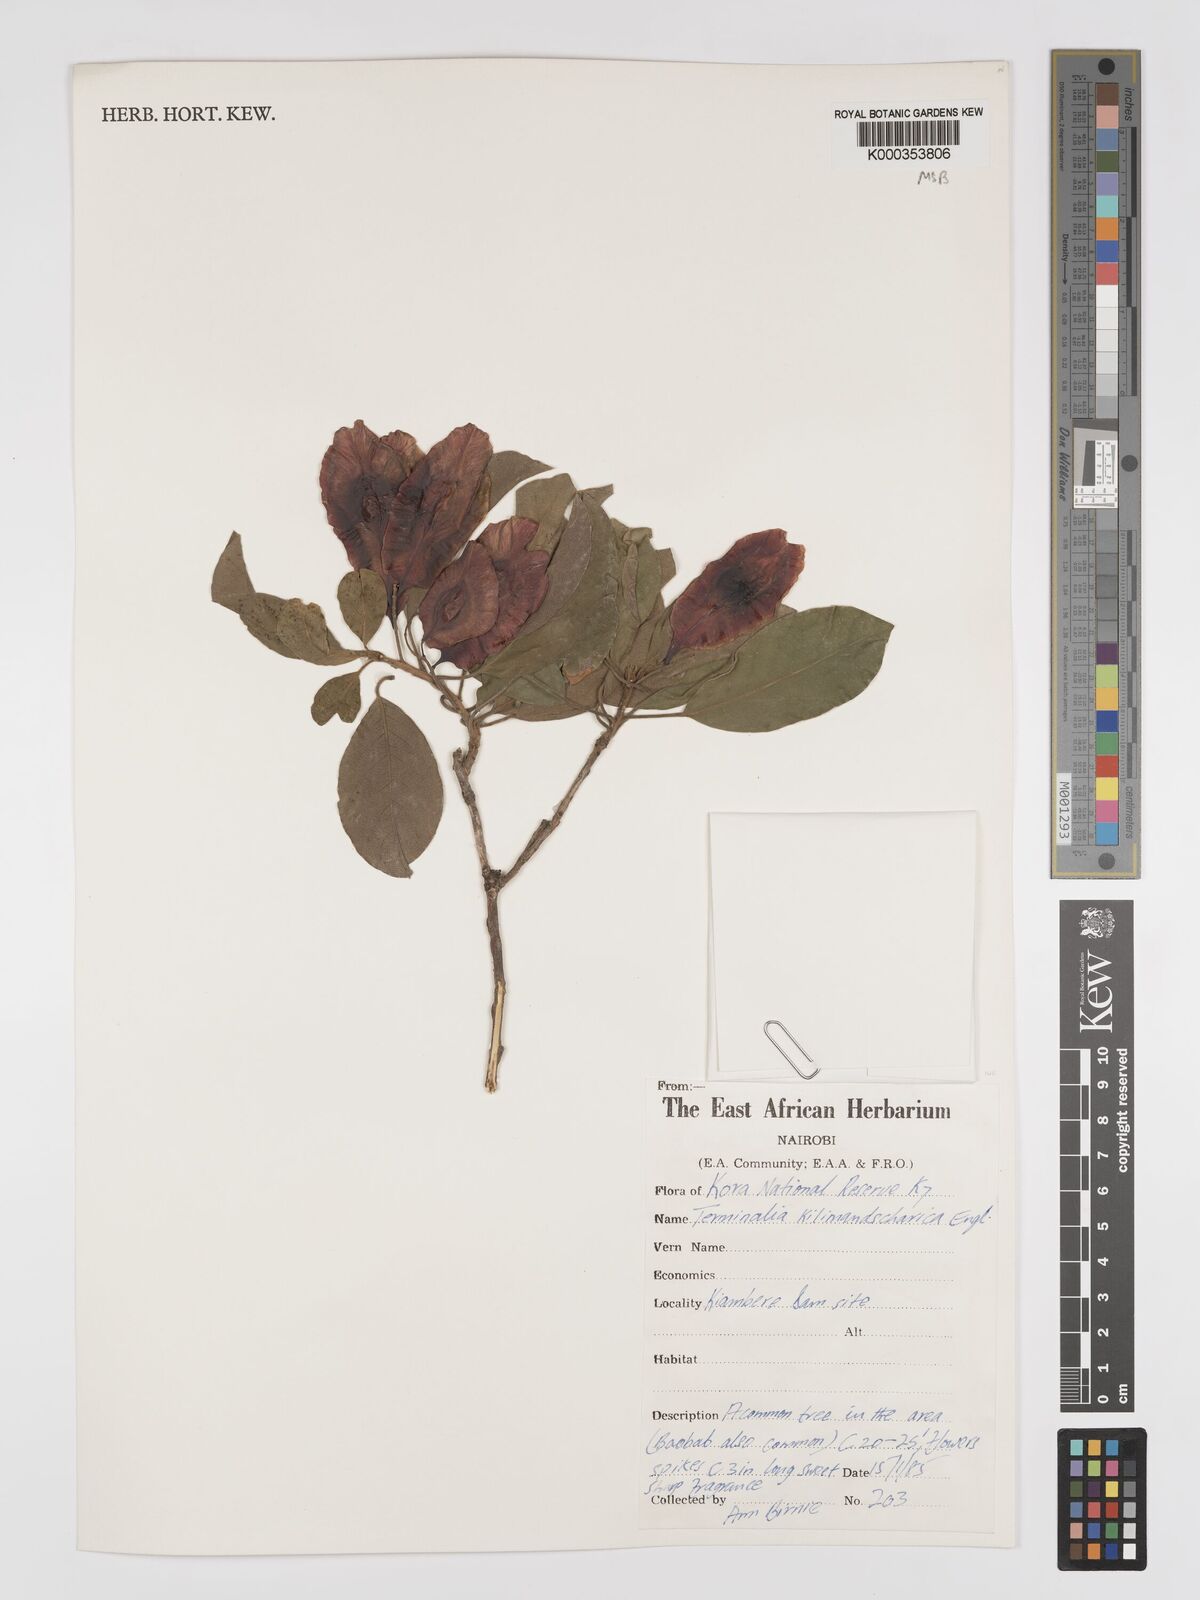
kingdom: Plantae
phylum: Tracheophyta
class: Magnoliopsida
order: Myrtales
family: Combretaceae
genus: Terminalia
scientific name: Terminalia kilimandscharica
